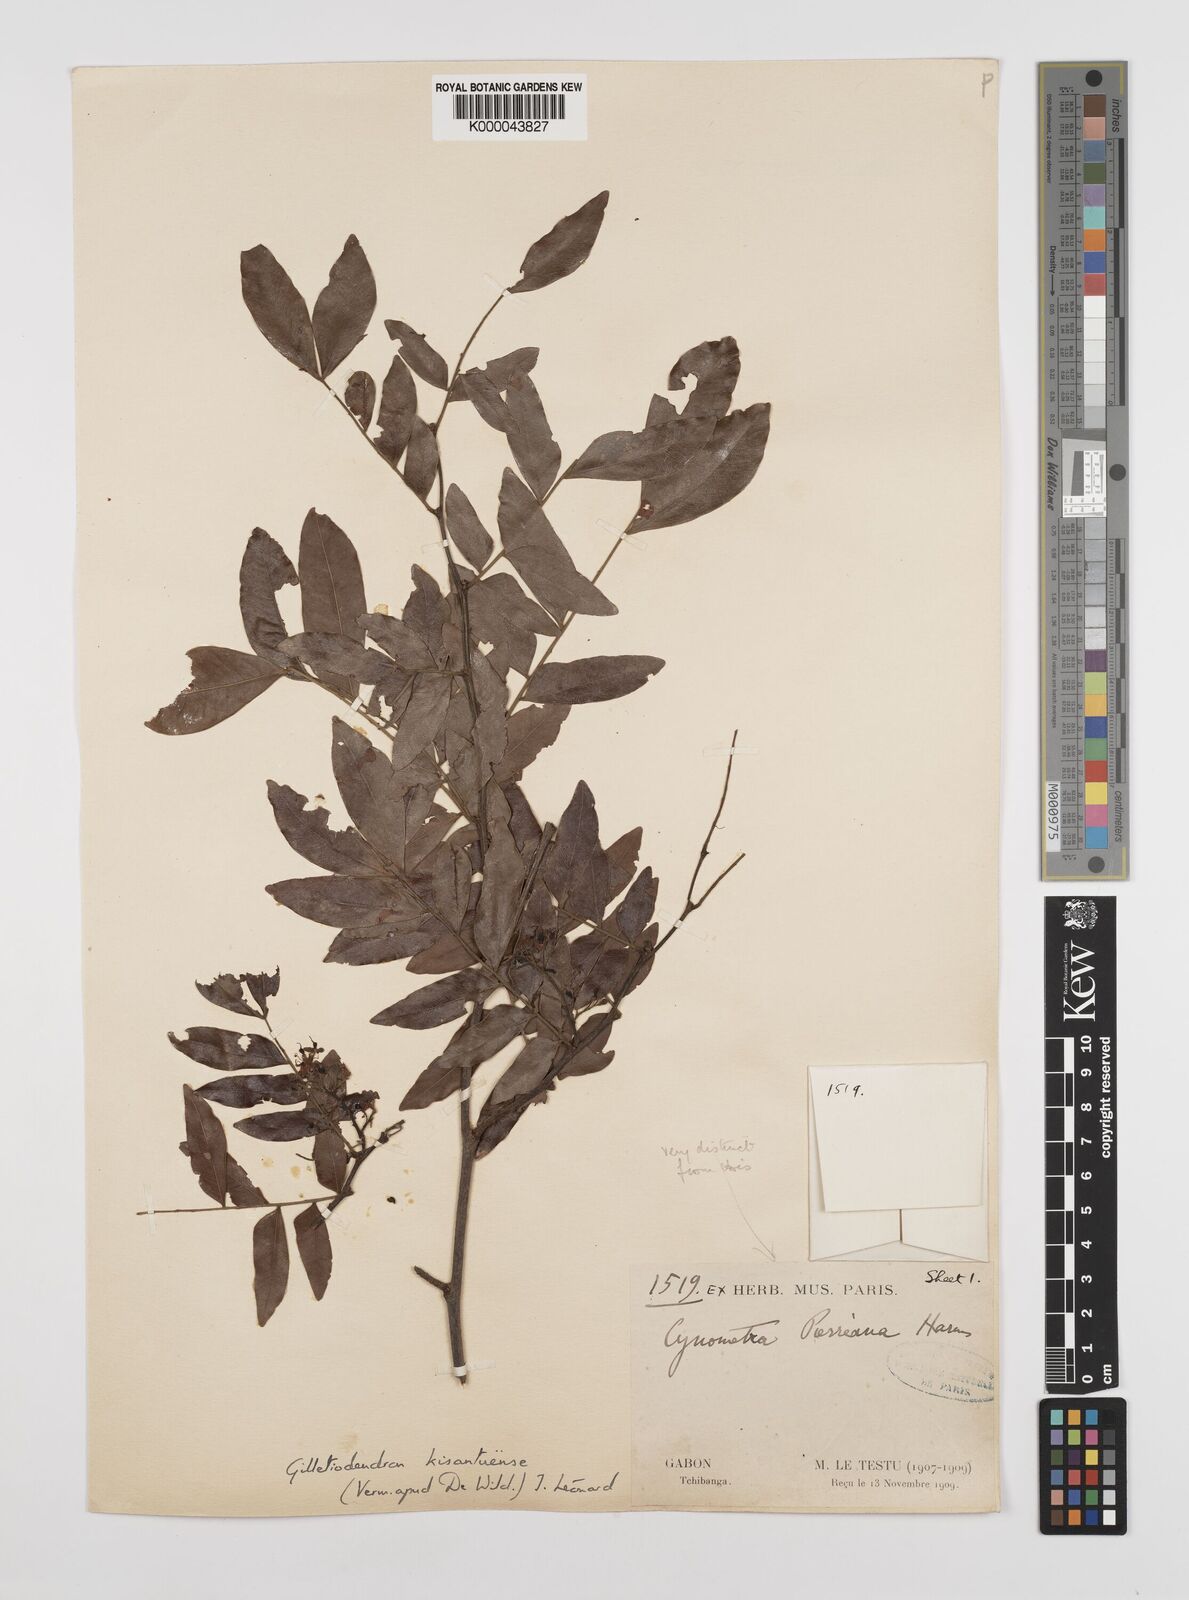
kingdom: Plantae
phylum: Tracheophyta
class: Magnoliopsida
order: Fabales
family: Fabaceae
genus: Guibourtia
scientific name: Guibourtia
